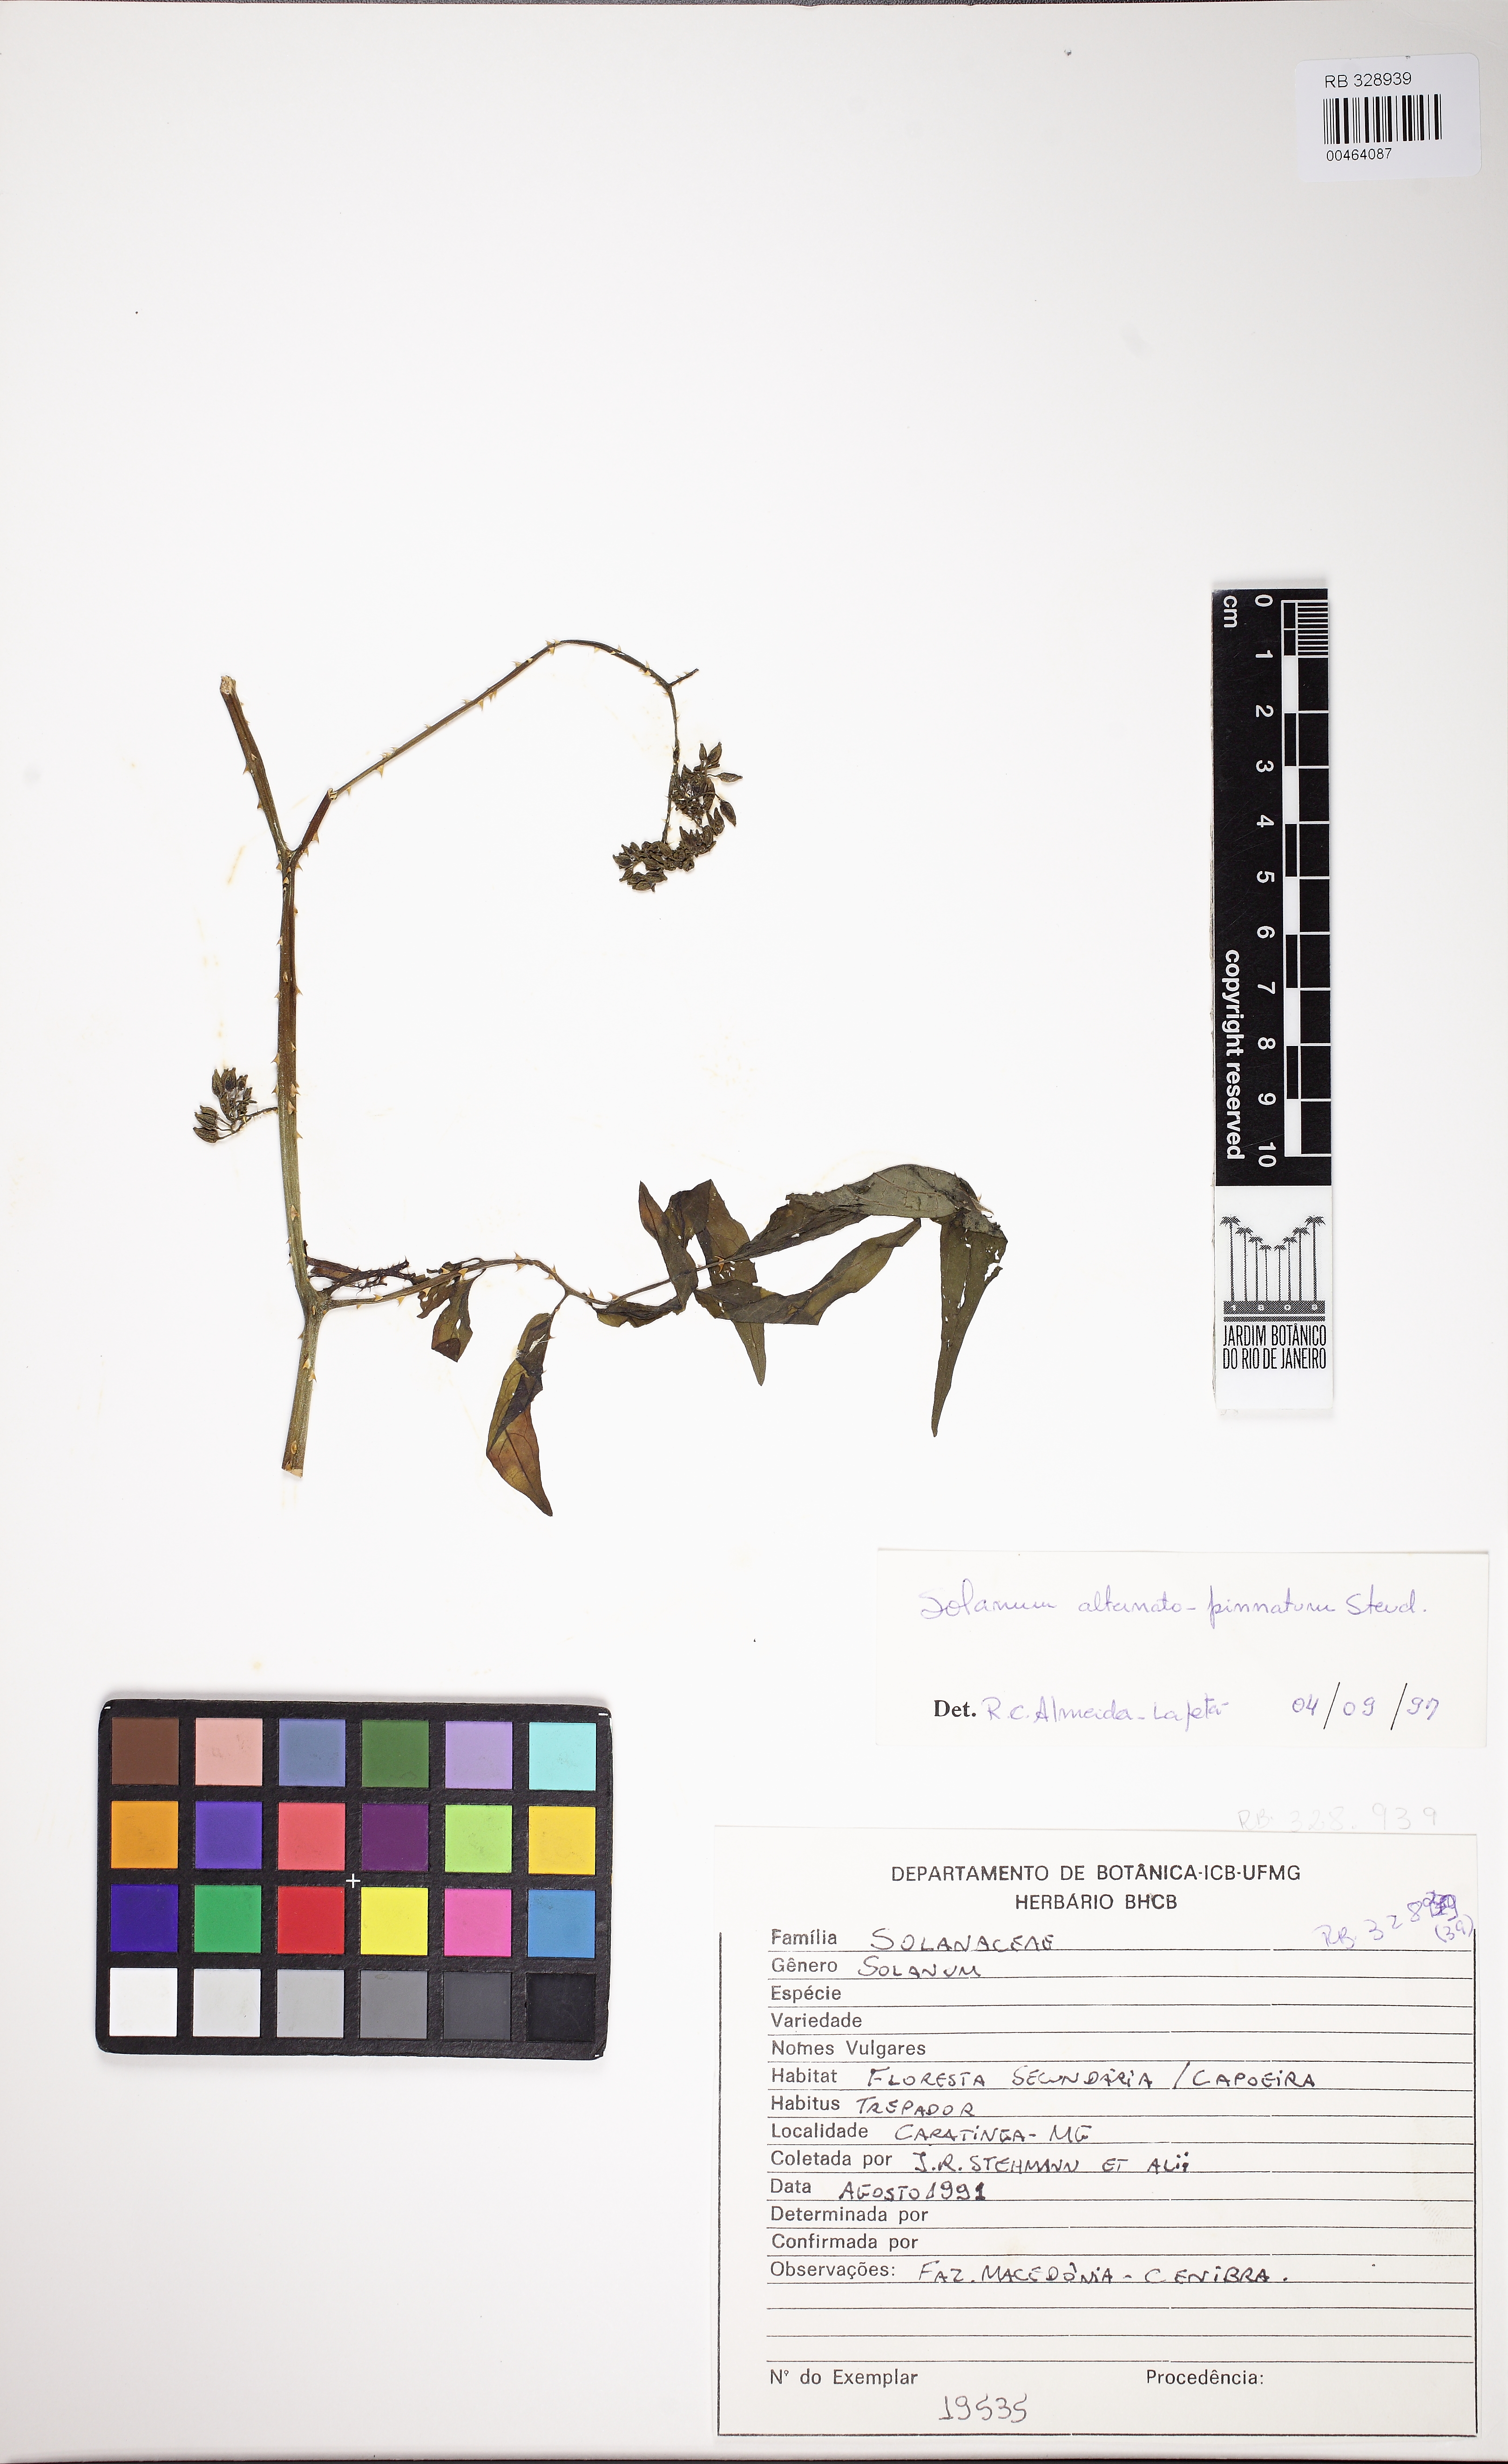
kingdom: Plantae
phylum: Tracheophyta
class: Magnoliopsida
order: Solanales
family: Solanaceae
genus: Solanum
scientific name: Solanum alternatopinnatum
